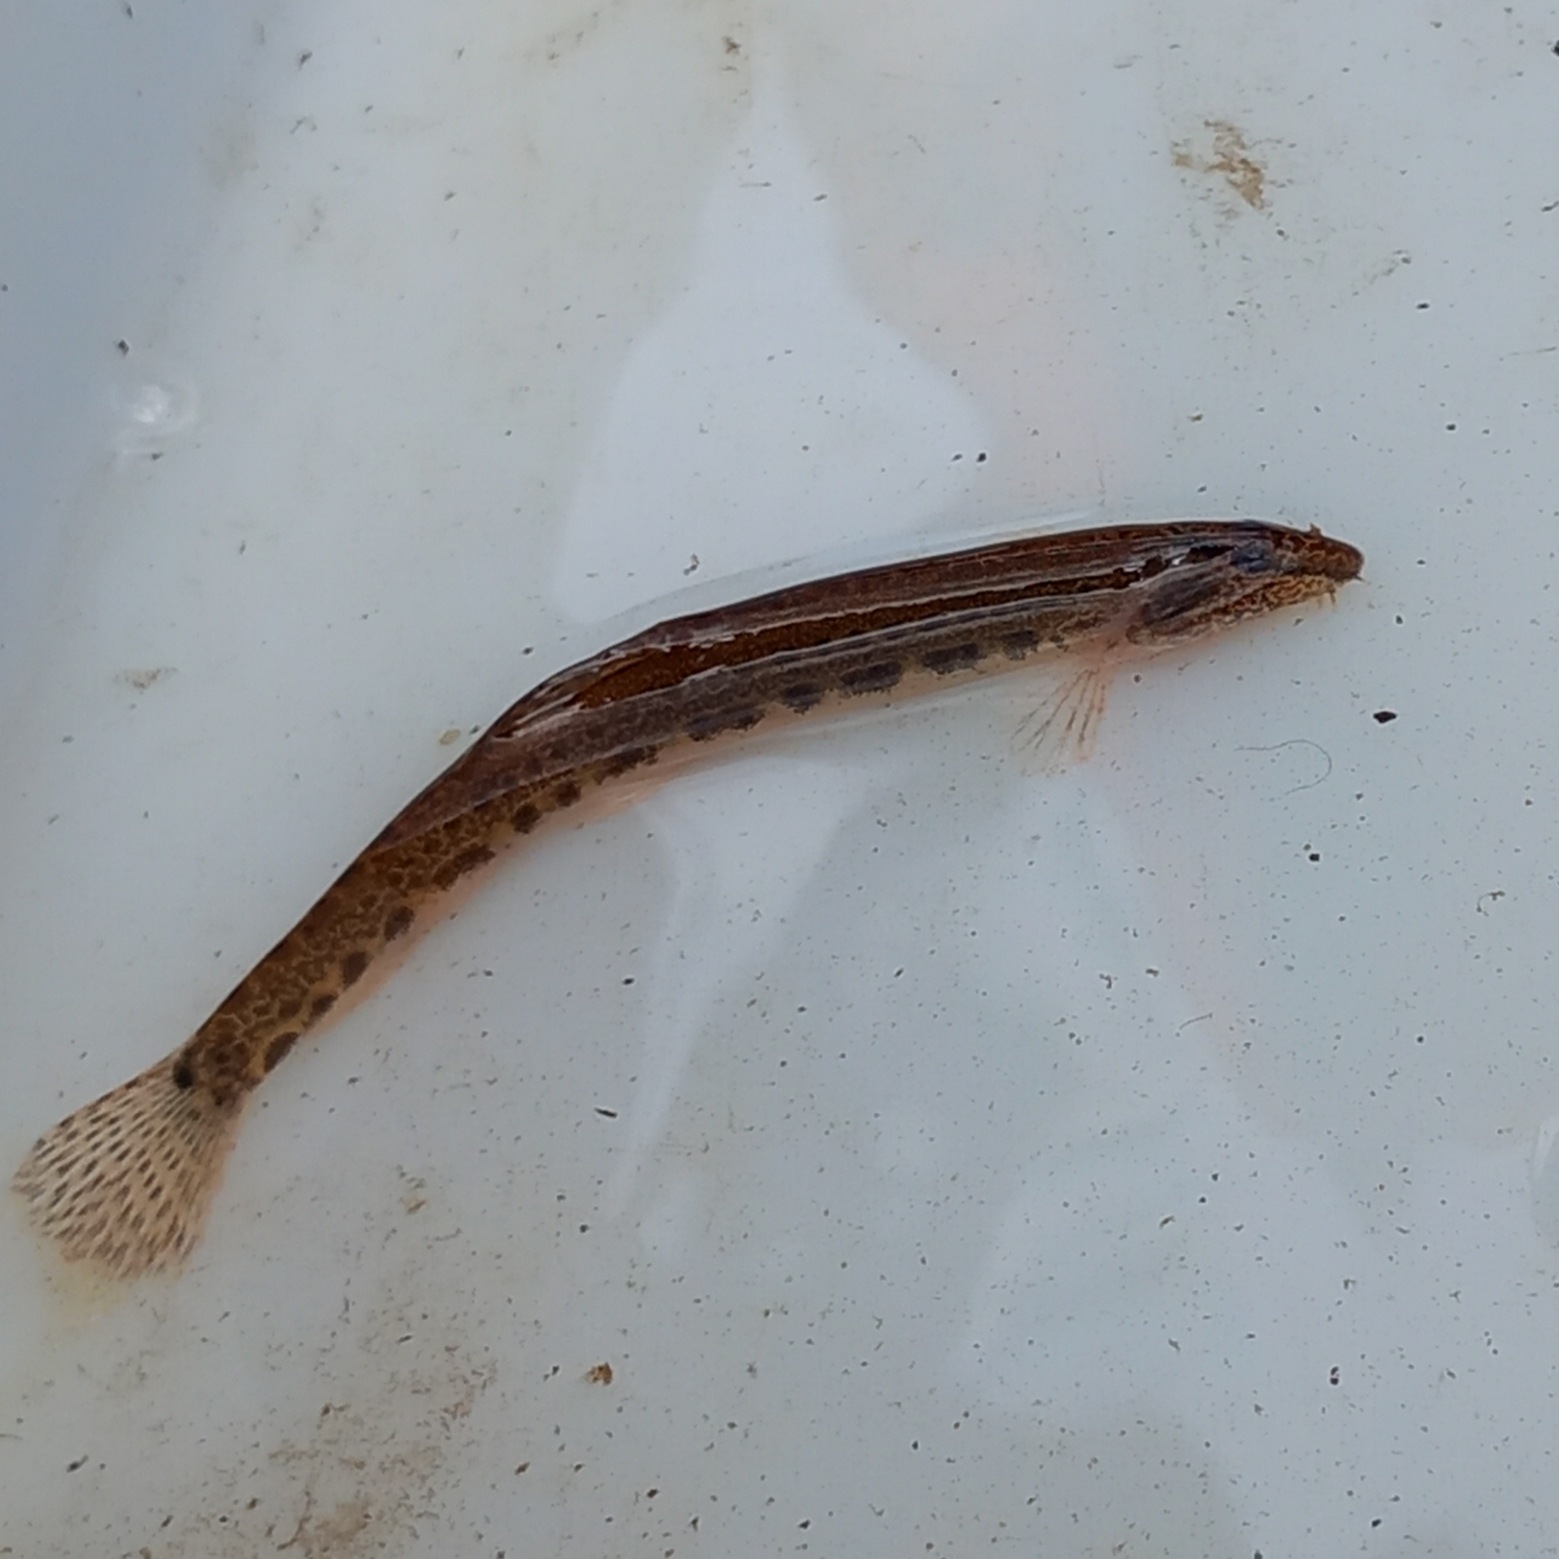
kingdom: Animalia
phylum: Chordata
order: Cypriniformes
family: Cobitidae
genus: Cobitis
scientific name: Cobitis taenia
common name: Pigsmerling
